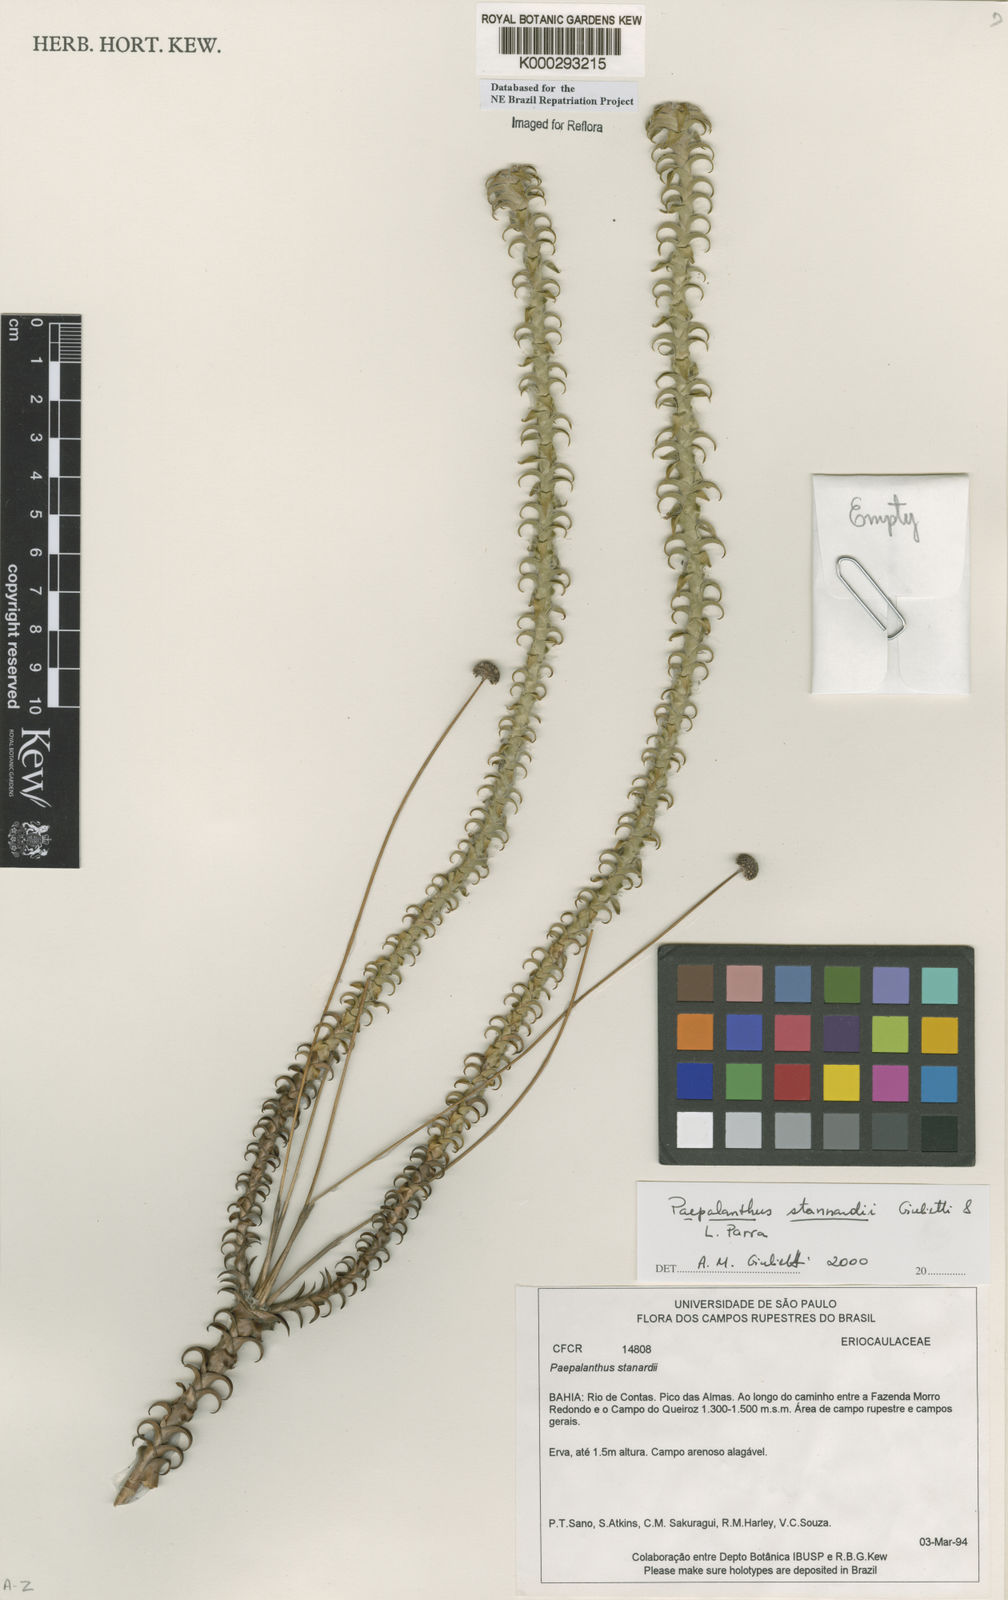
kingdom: Plantae
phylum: Tracheophyta
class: Liliopsida
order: Poales
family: Eriocaulaceae
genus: Paepalanthus
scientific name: Paepalanthus stannardii
